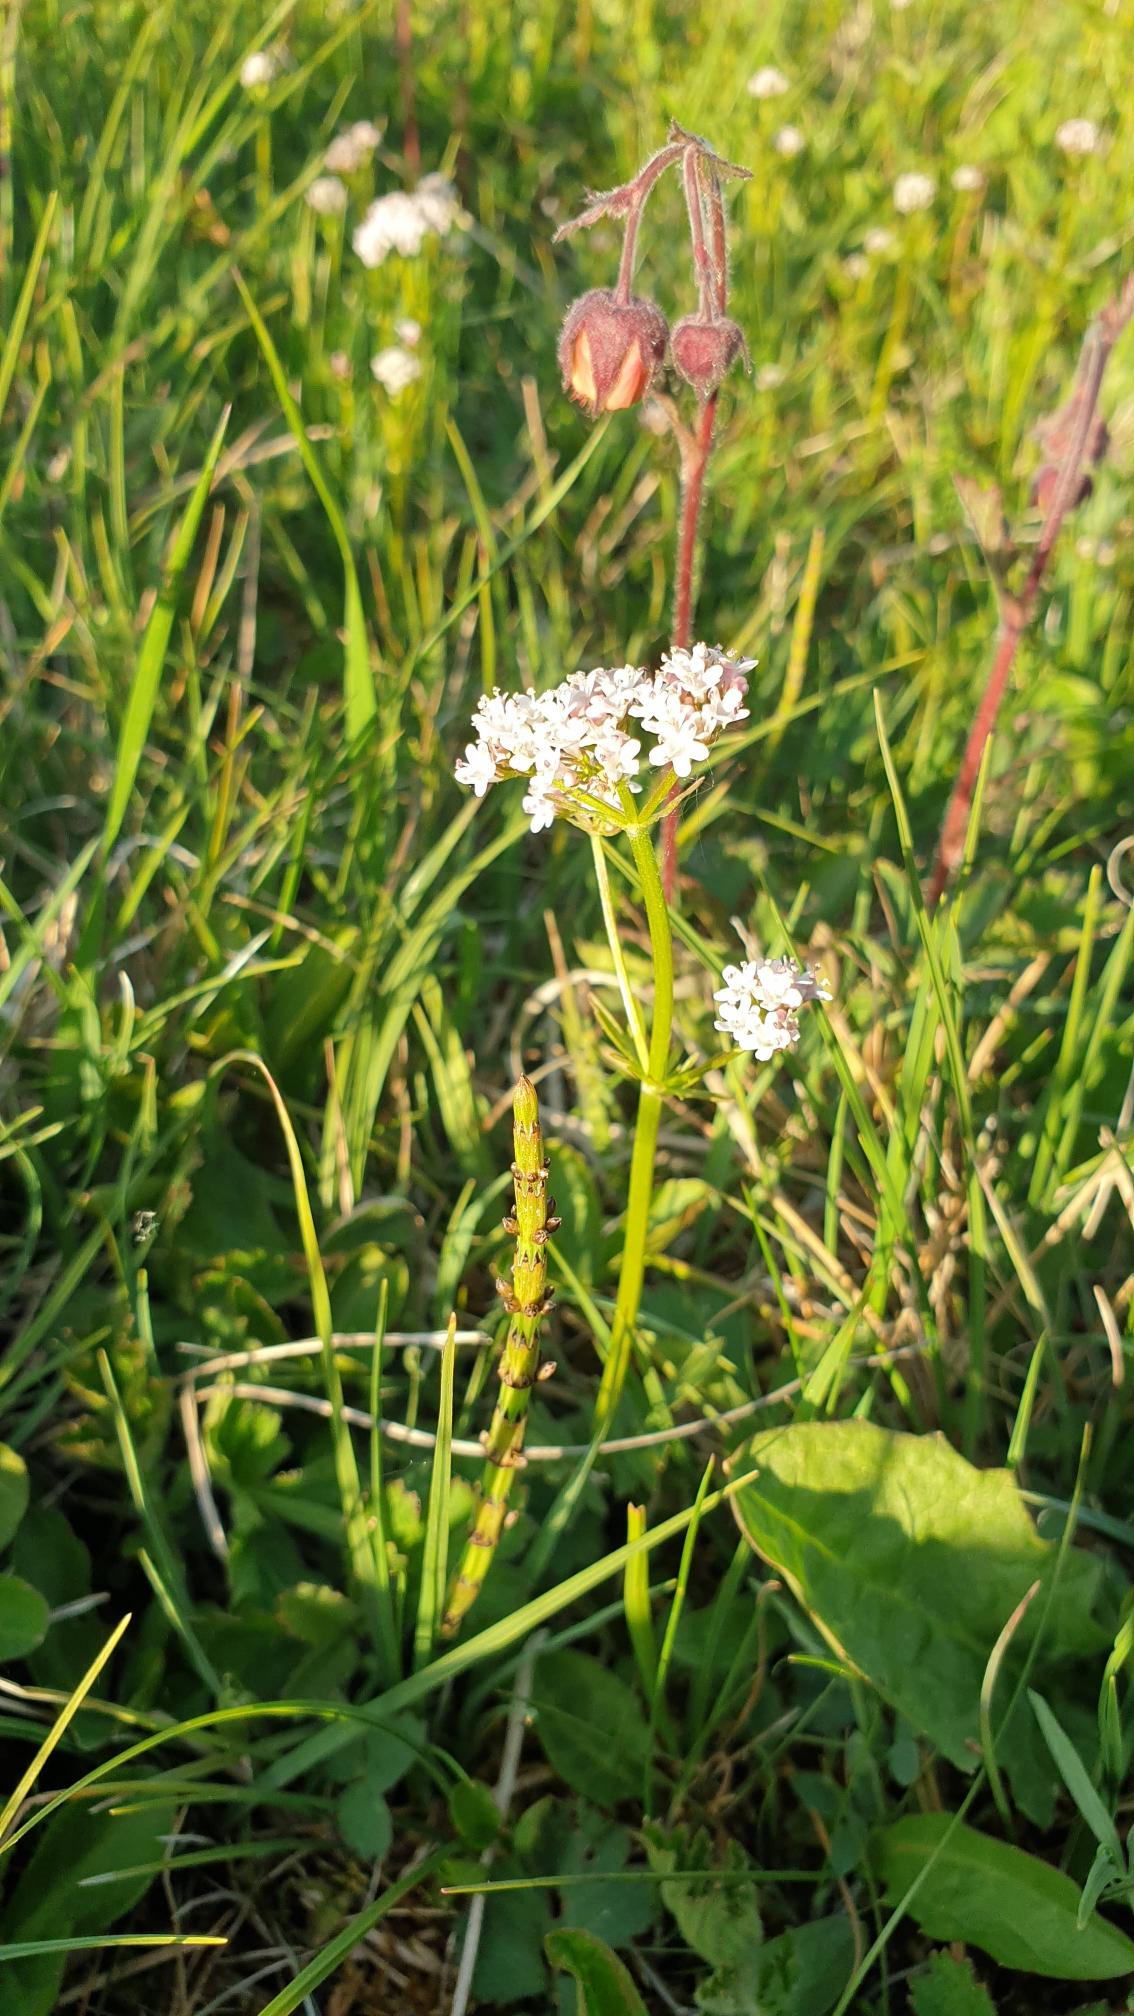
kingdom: Plantae
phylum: Tracheophyta
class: Magnoliopsida
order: Dipsacales
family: Caprifoliaceae
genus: Valeriana
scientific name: Valeriana dioica
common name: Tvebo baldrian
